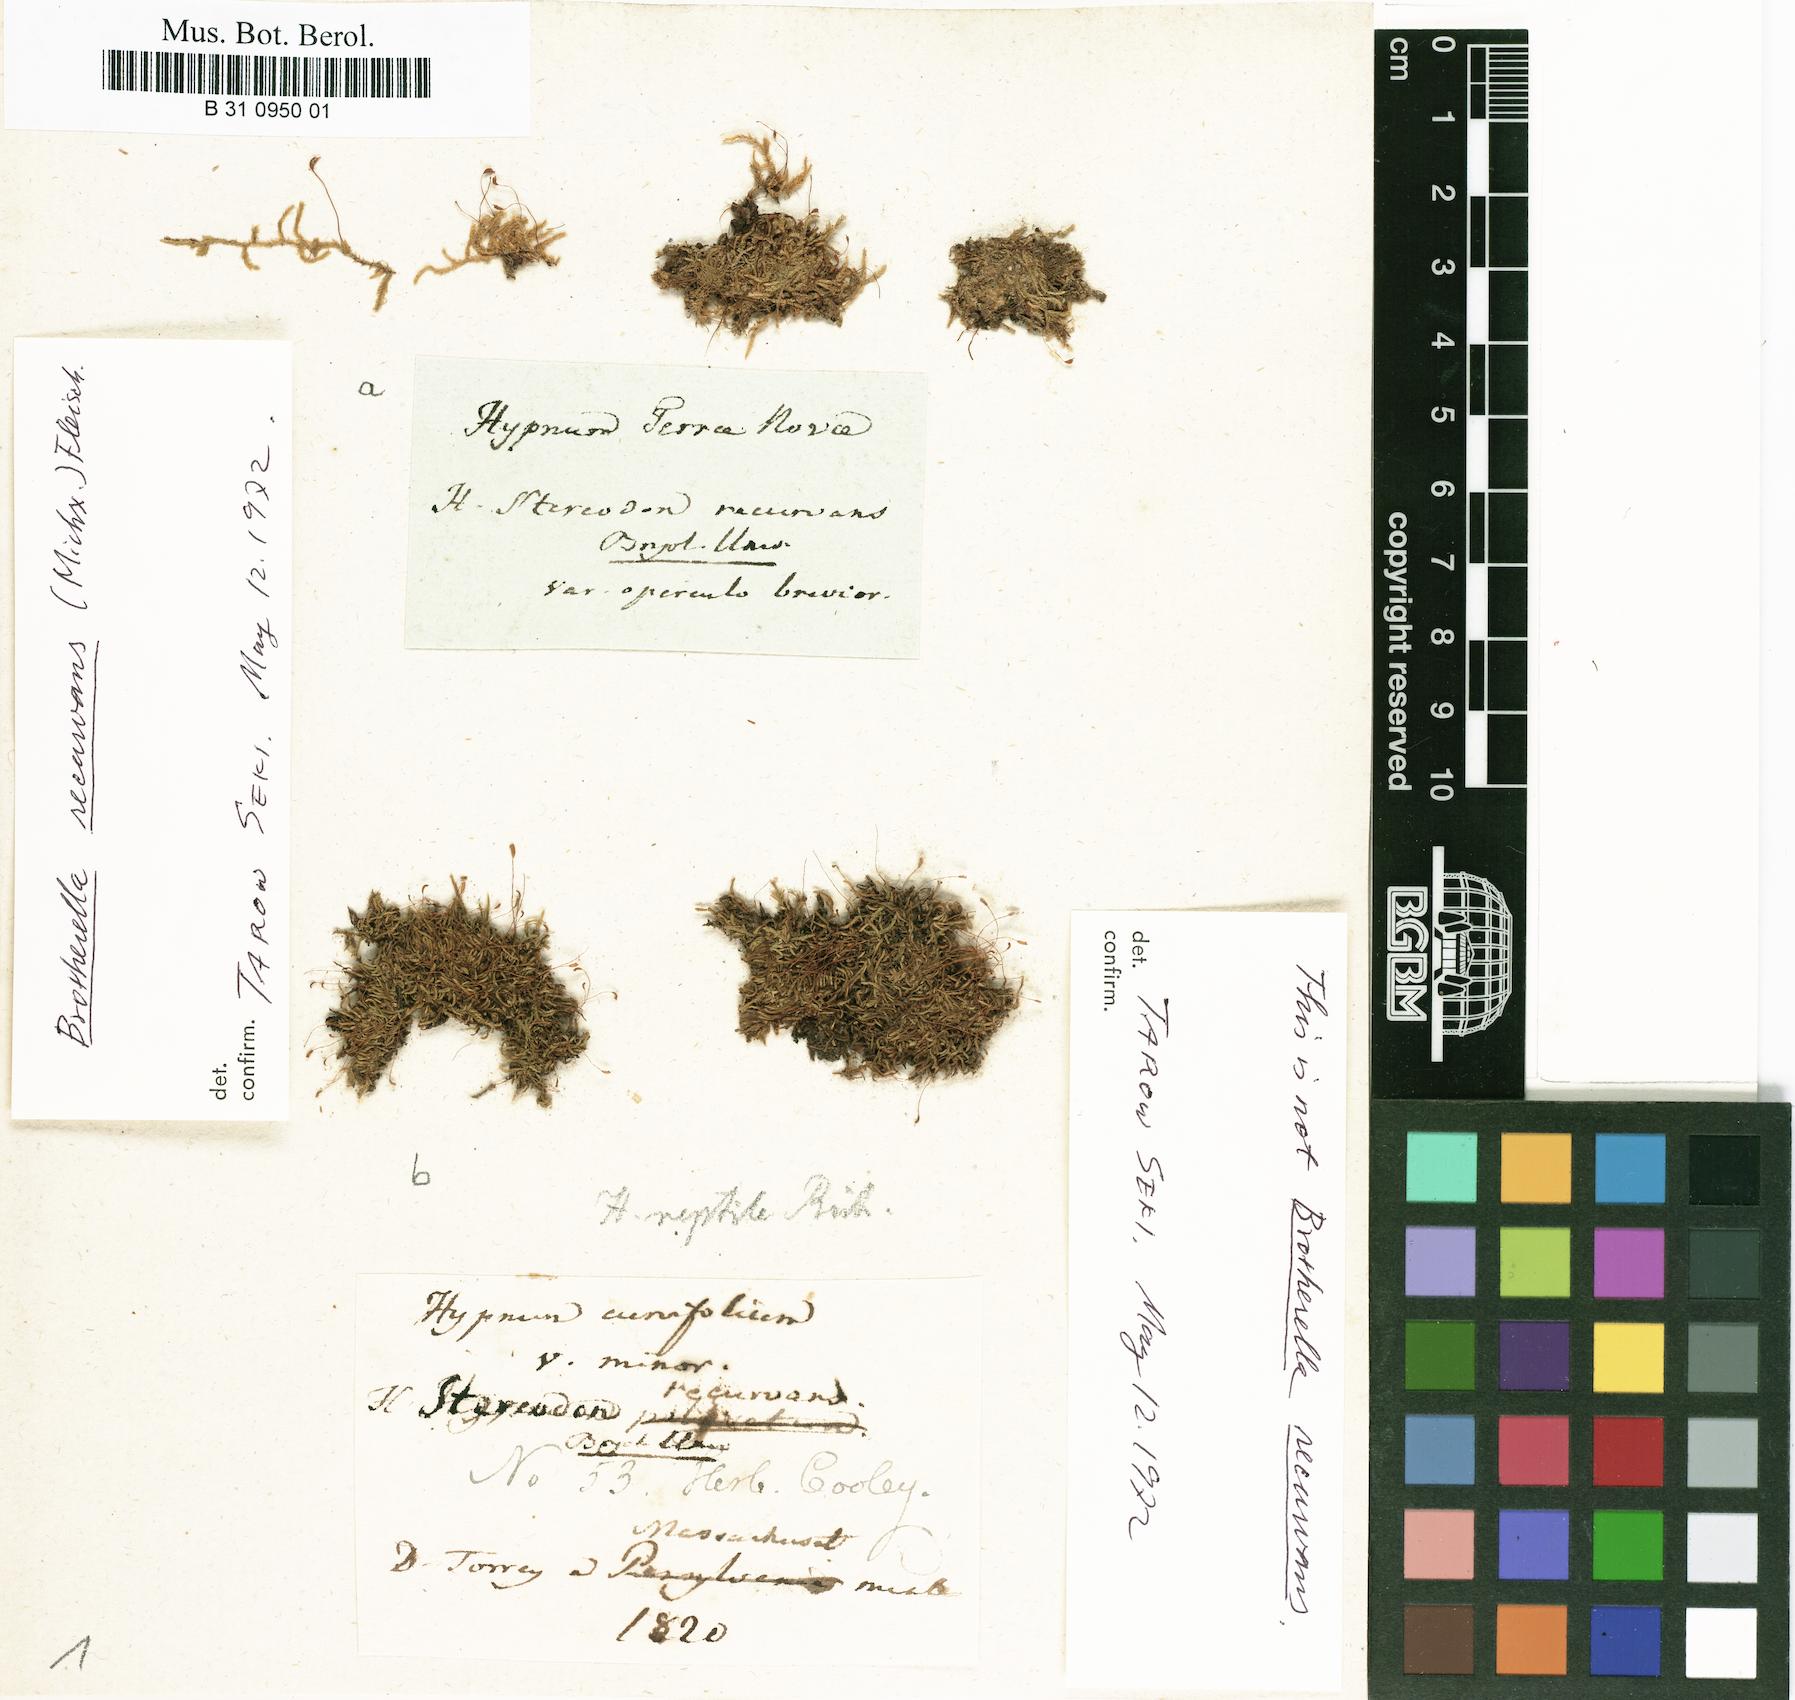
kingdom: Plantae
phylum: Bryophyta
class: Bryopsida
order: Hypnales
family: Pylaisiadelphaceae
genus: Brotherella
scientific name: Brotherella recurvans
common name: Recurved brotherella
